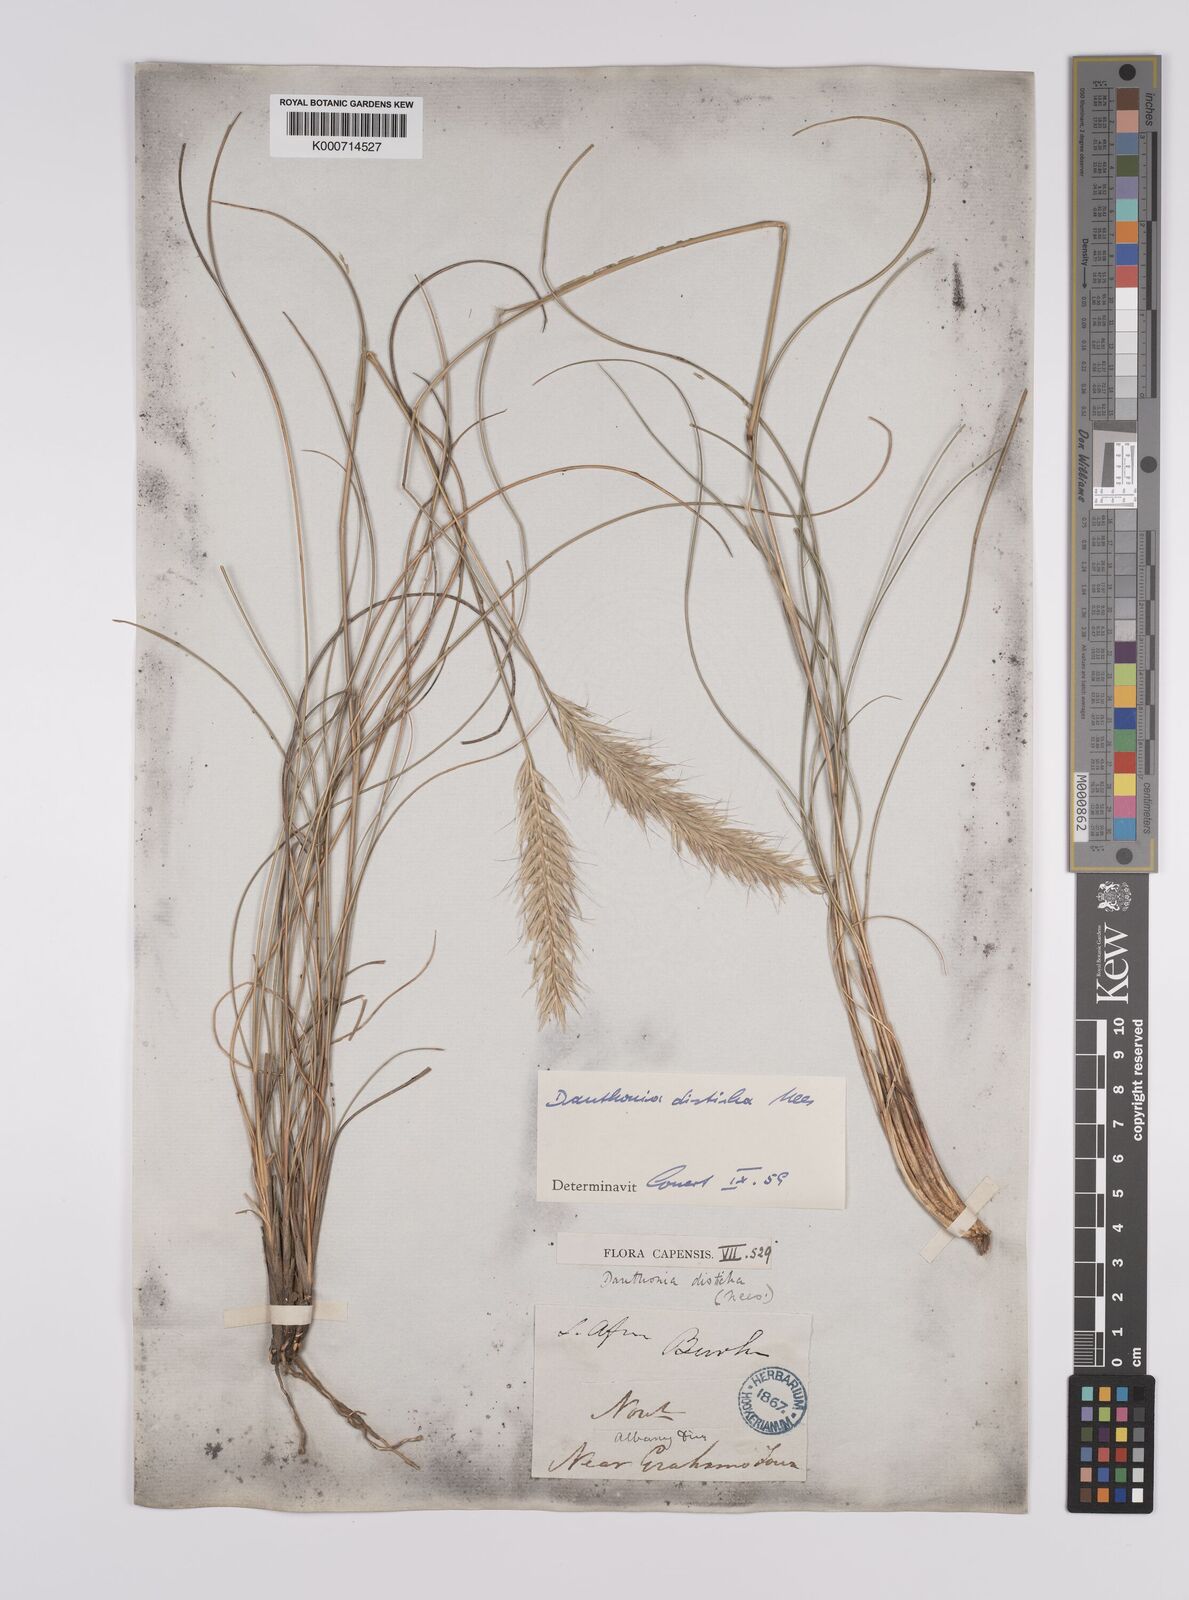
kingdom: Plantae
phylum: Tracheophyta
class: Liliopsida
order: Poales
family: Poaceae
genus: Tenaxia
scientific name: Tenaxia disticha
